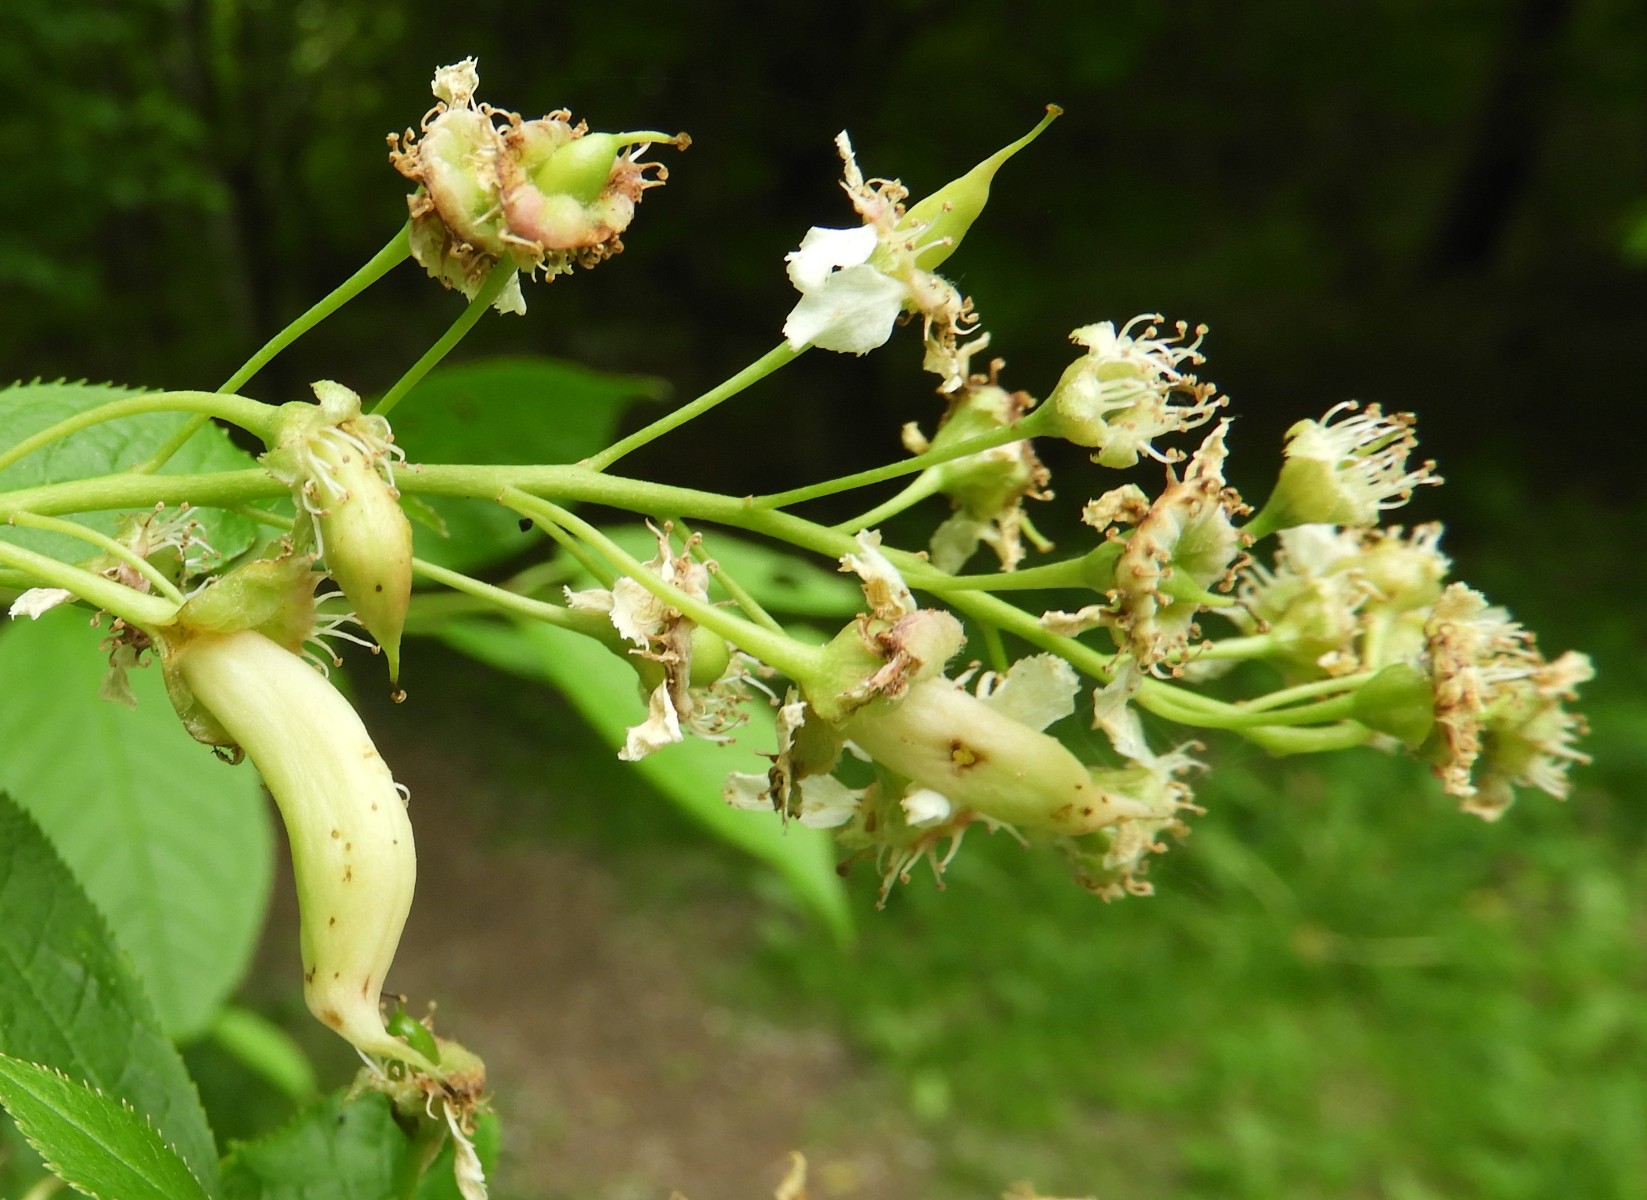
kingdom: Fungi
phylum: Ascomycota
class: Taphrinomycetes
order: Taphrinales
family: Taphrinaceae
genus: Taphrina
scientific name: Taphrina padi
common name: Bird cherry pocket
